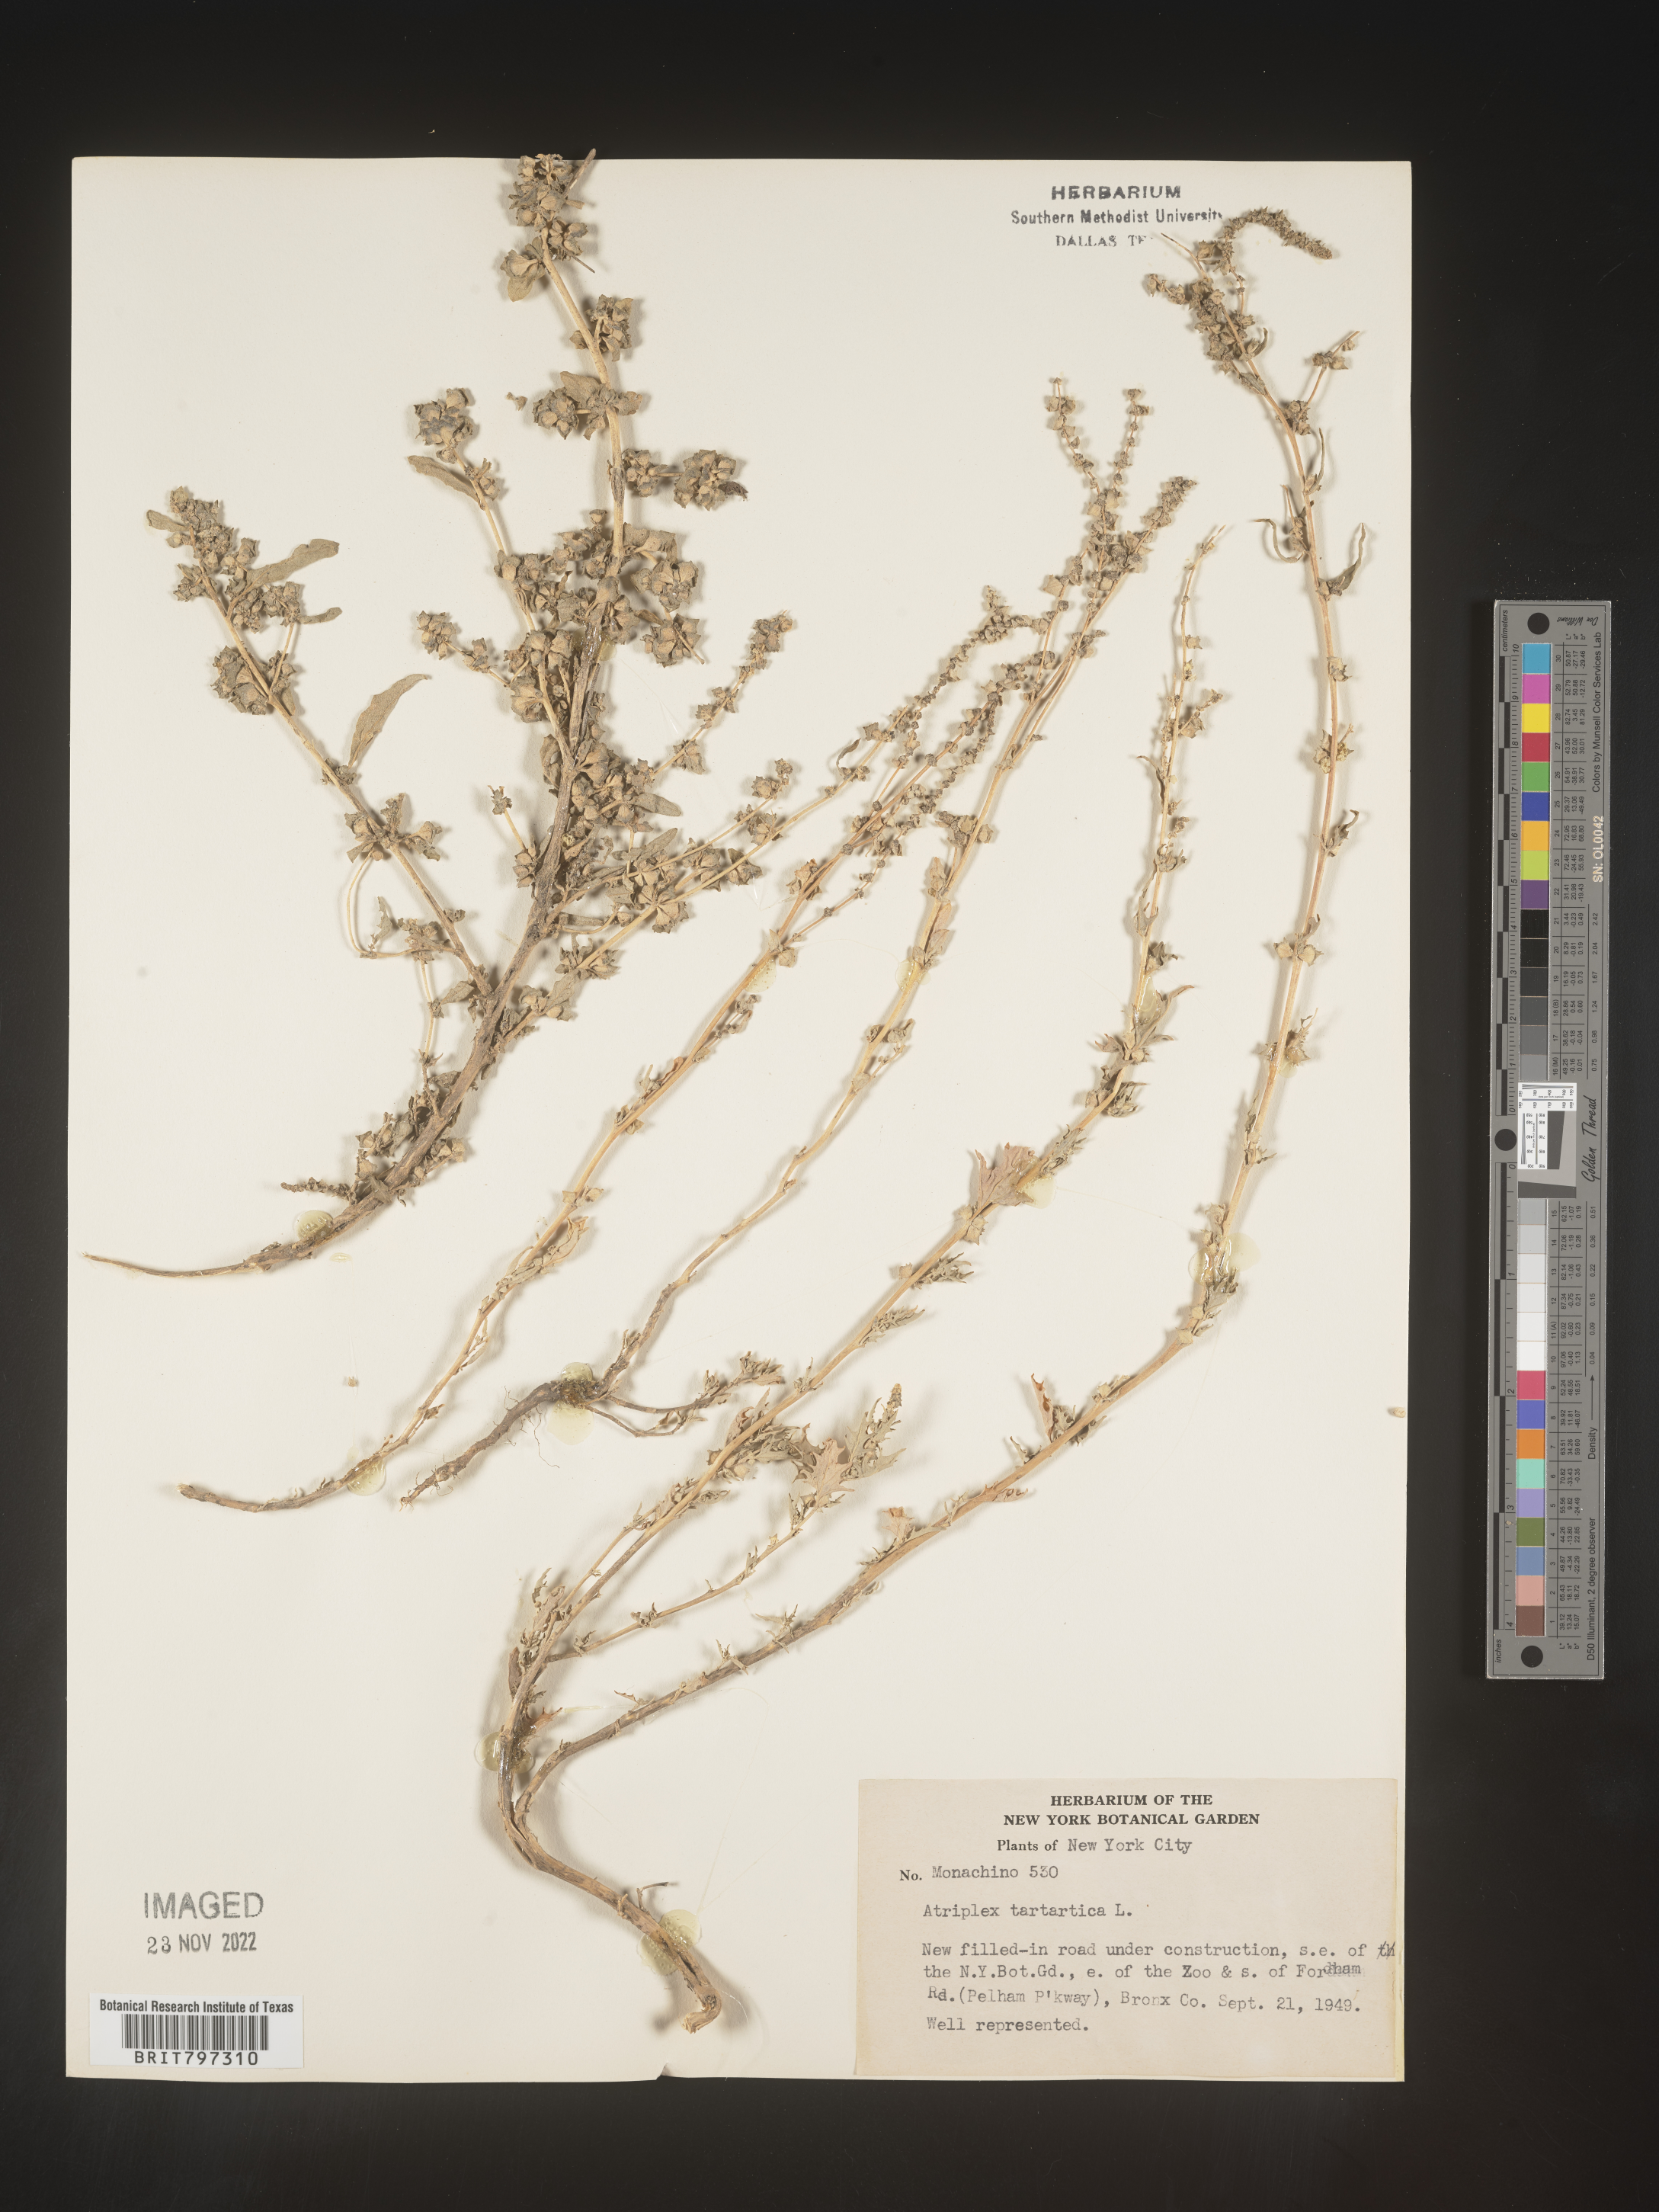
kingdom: Plantae
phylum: Tracheophyta
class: Magnoliopsida
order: Caryophyllales
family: Amaranthaceae
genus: Atriplex
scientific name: Atriplex
